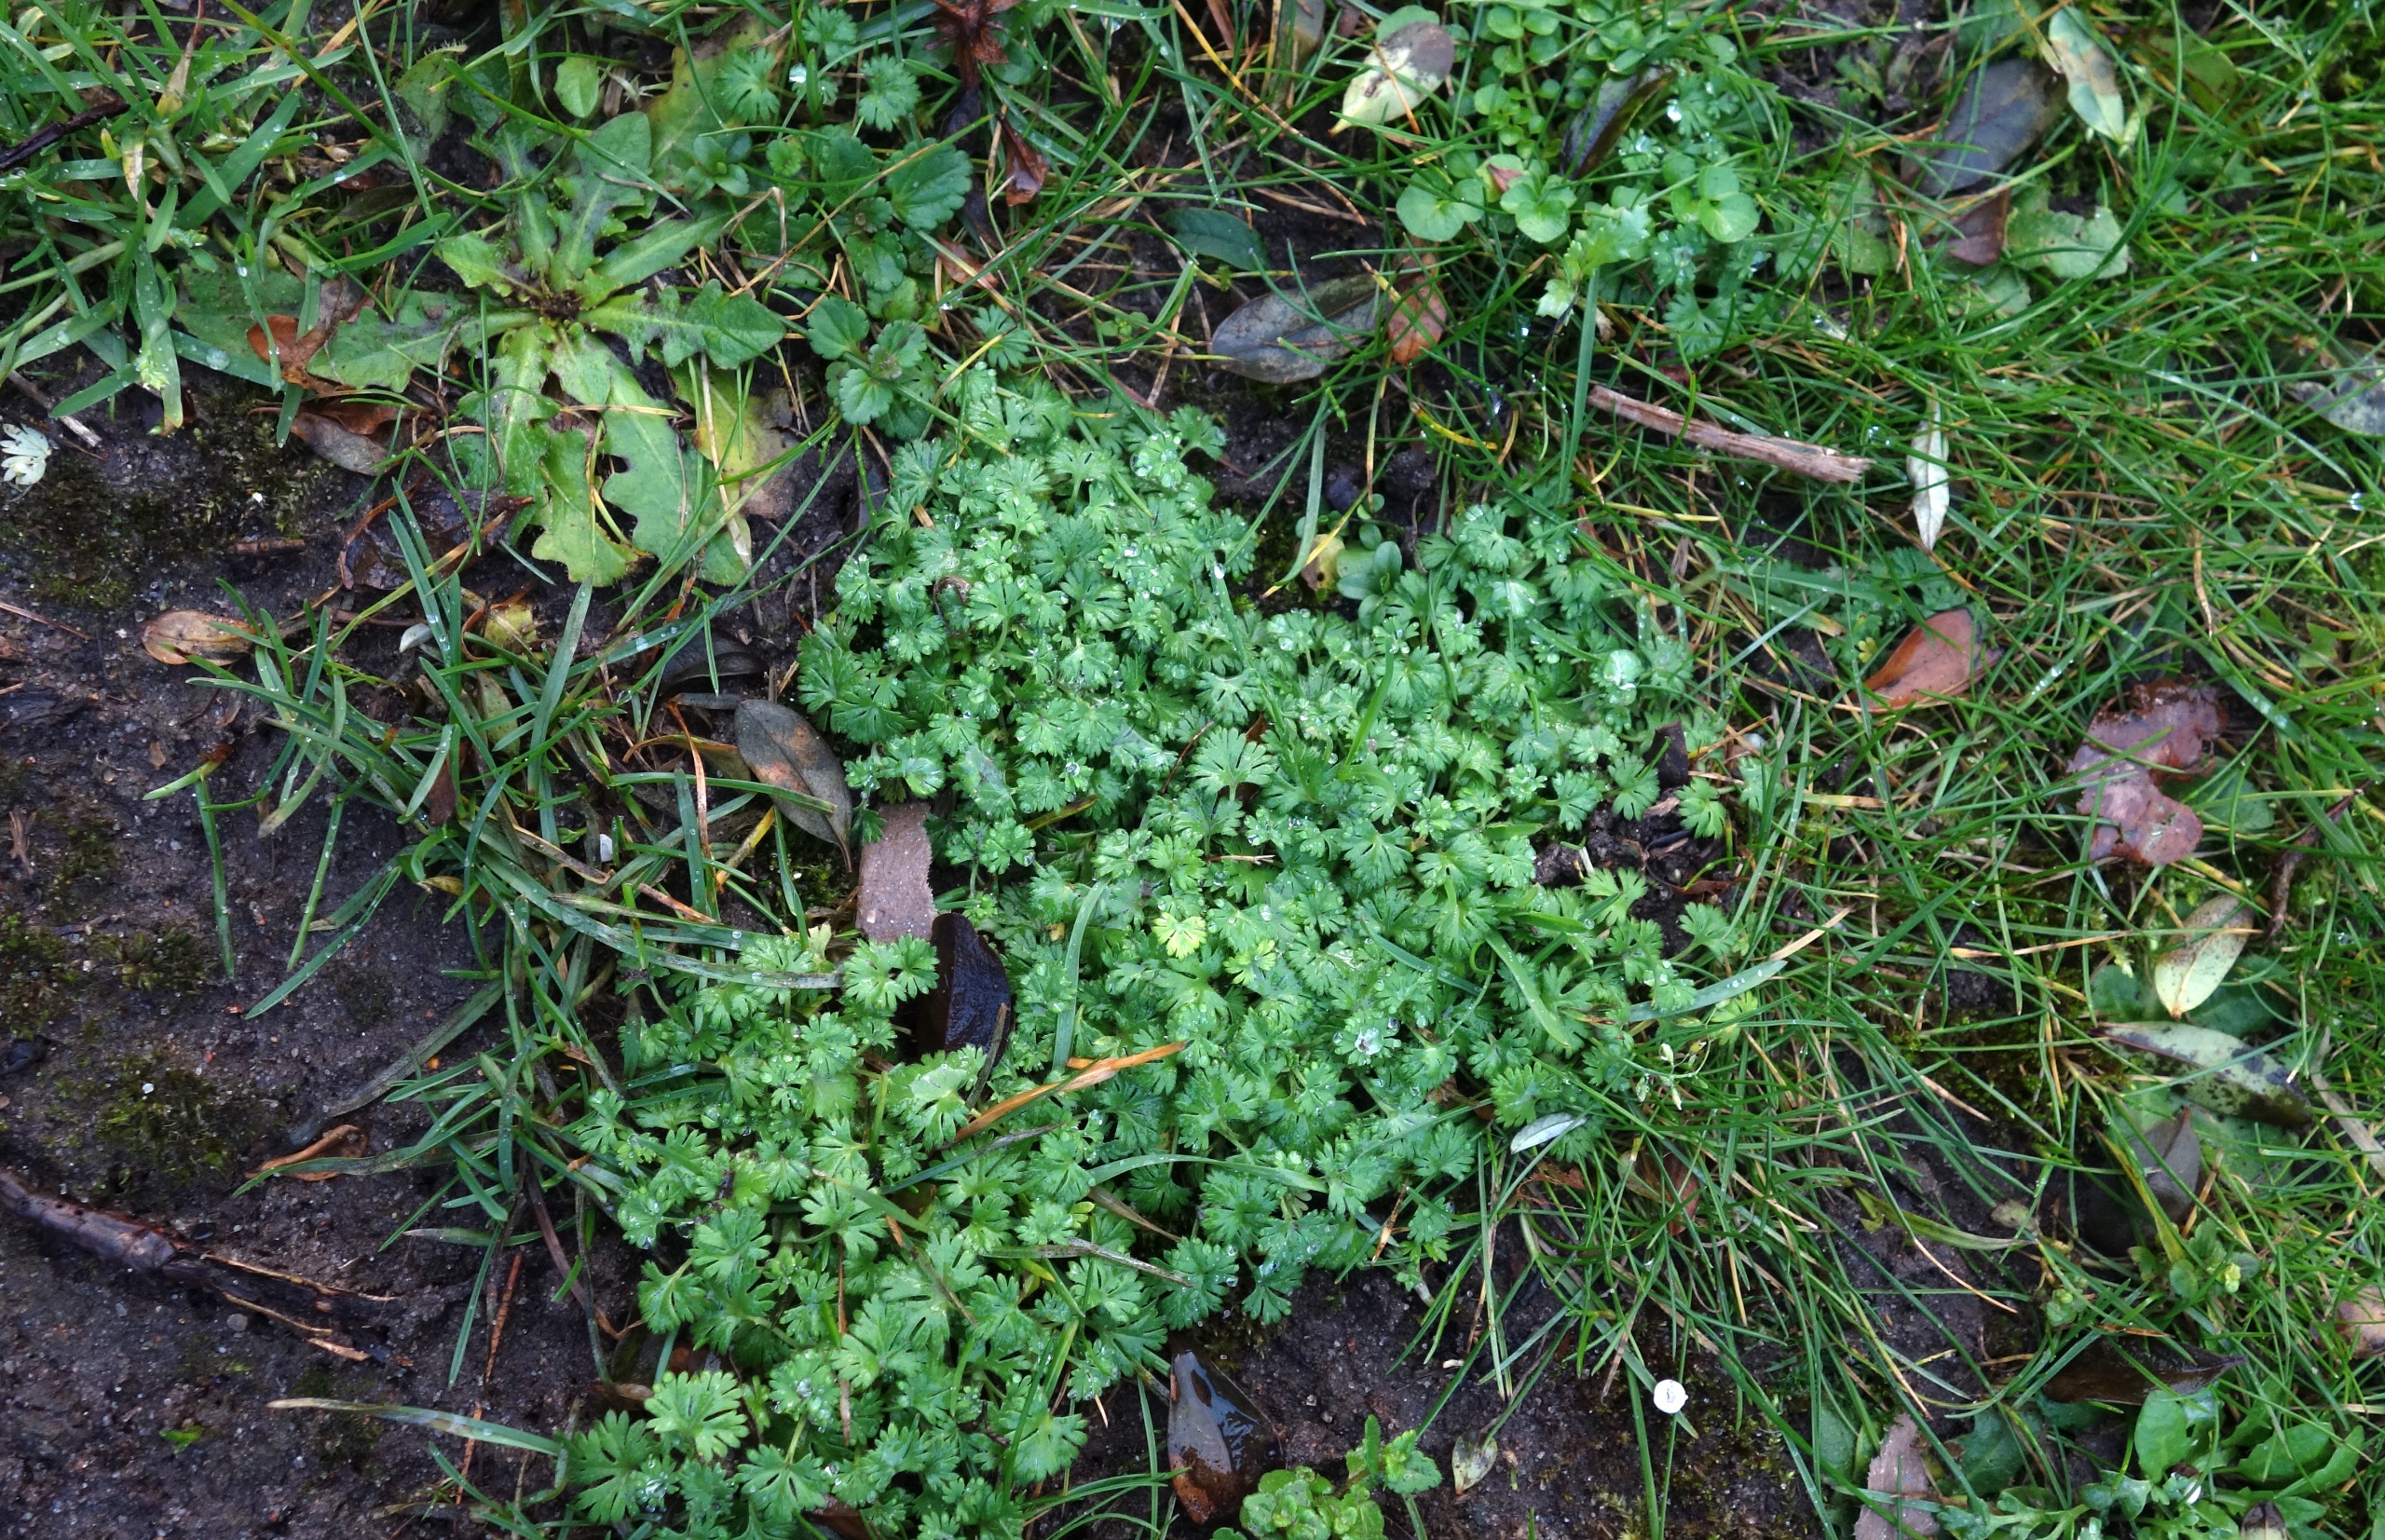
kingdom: Plantae
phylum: Tracheophyta
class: Magnoliopsida
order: Rosales
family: Rosaceae
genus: Aphanes
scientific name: Aphanes
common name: Dværgløvefodslægten
